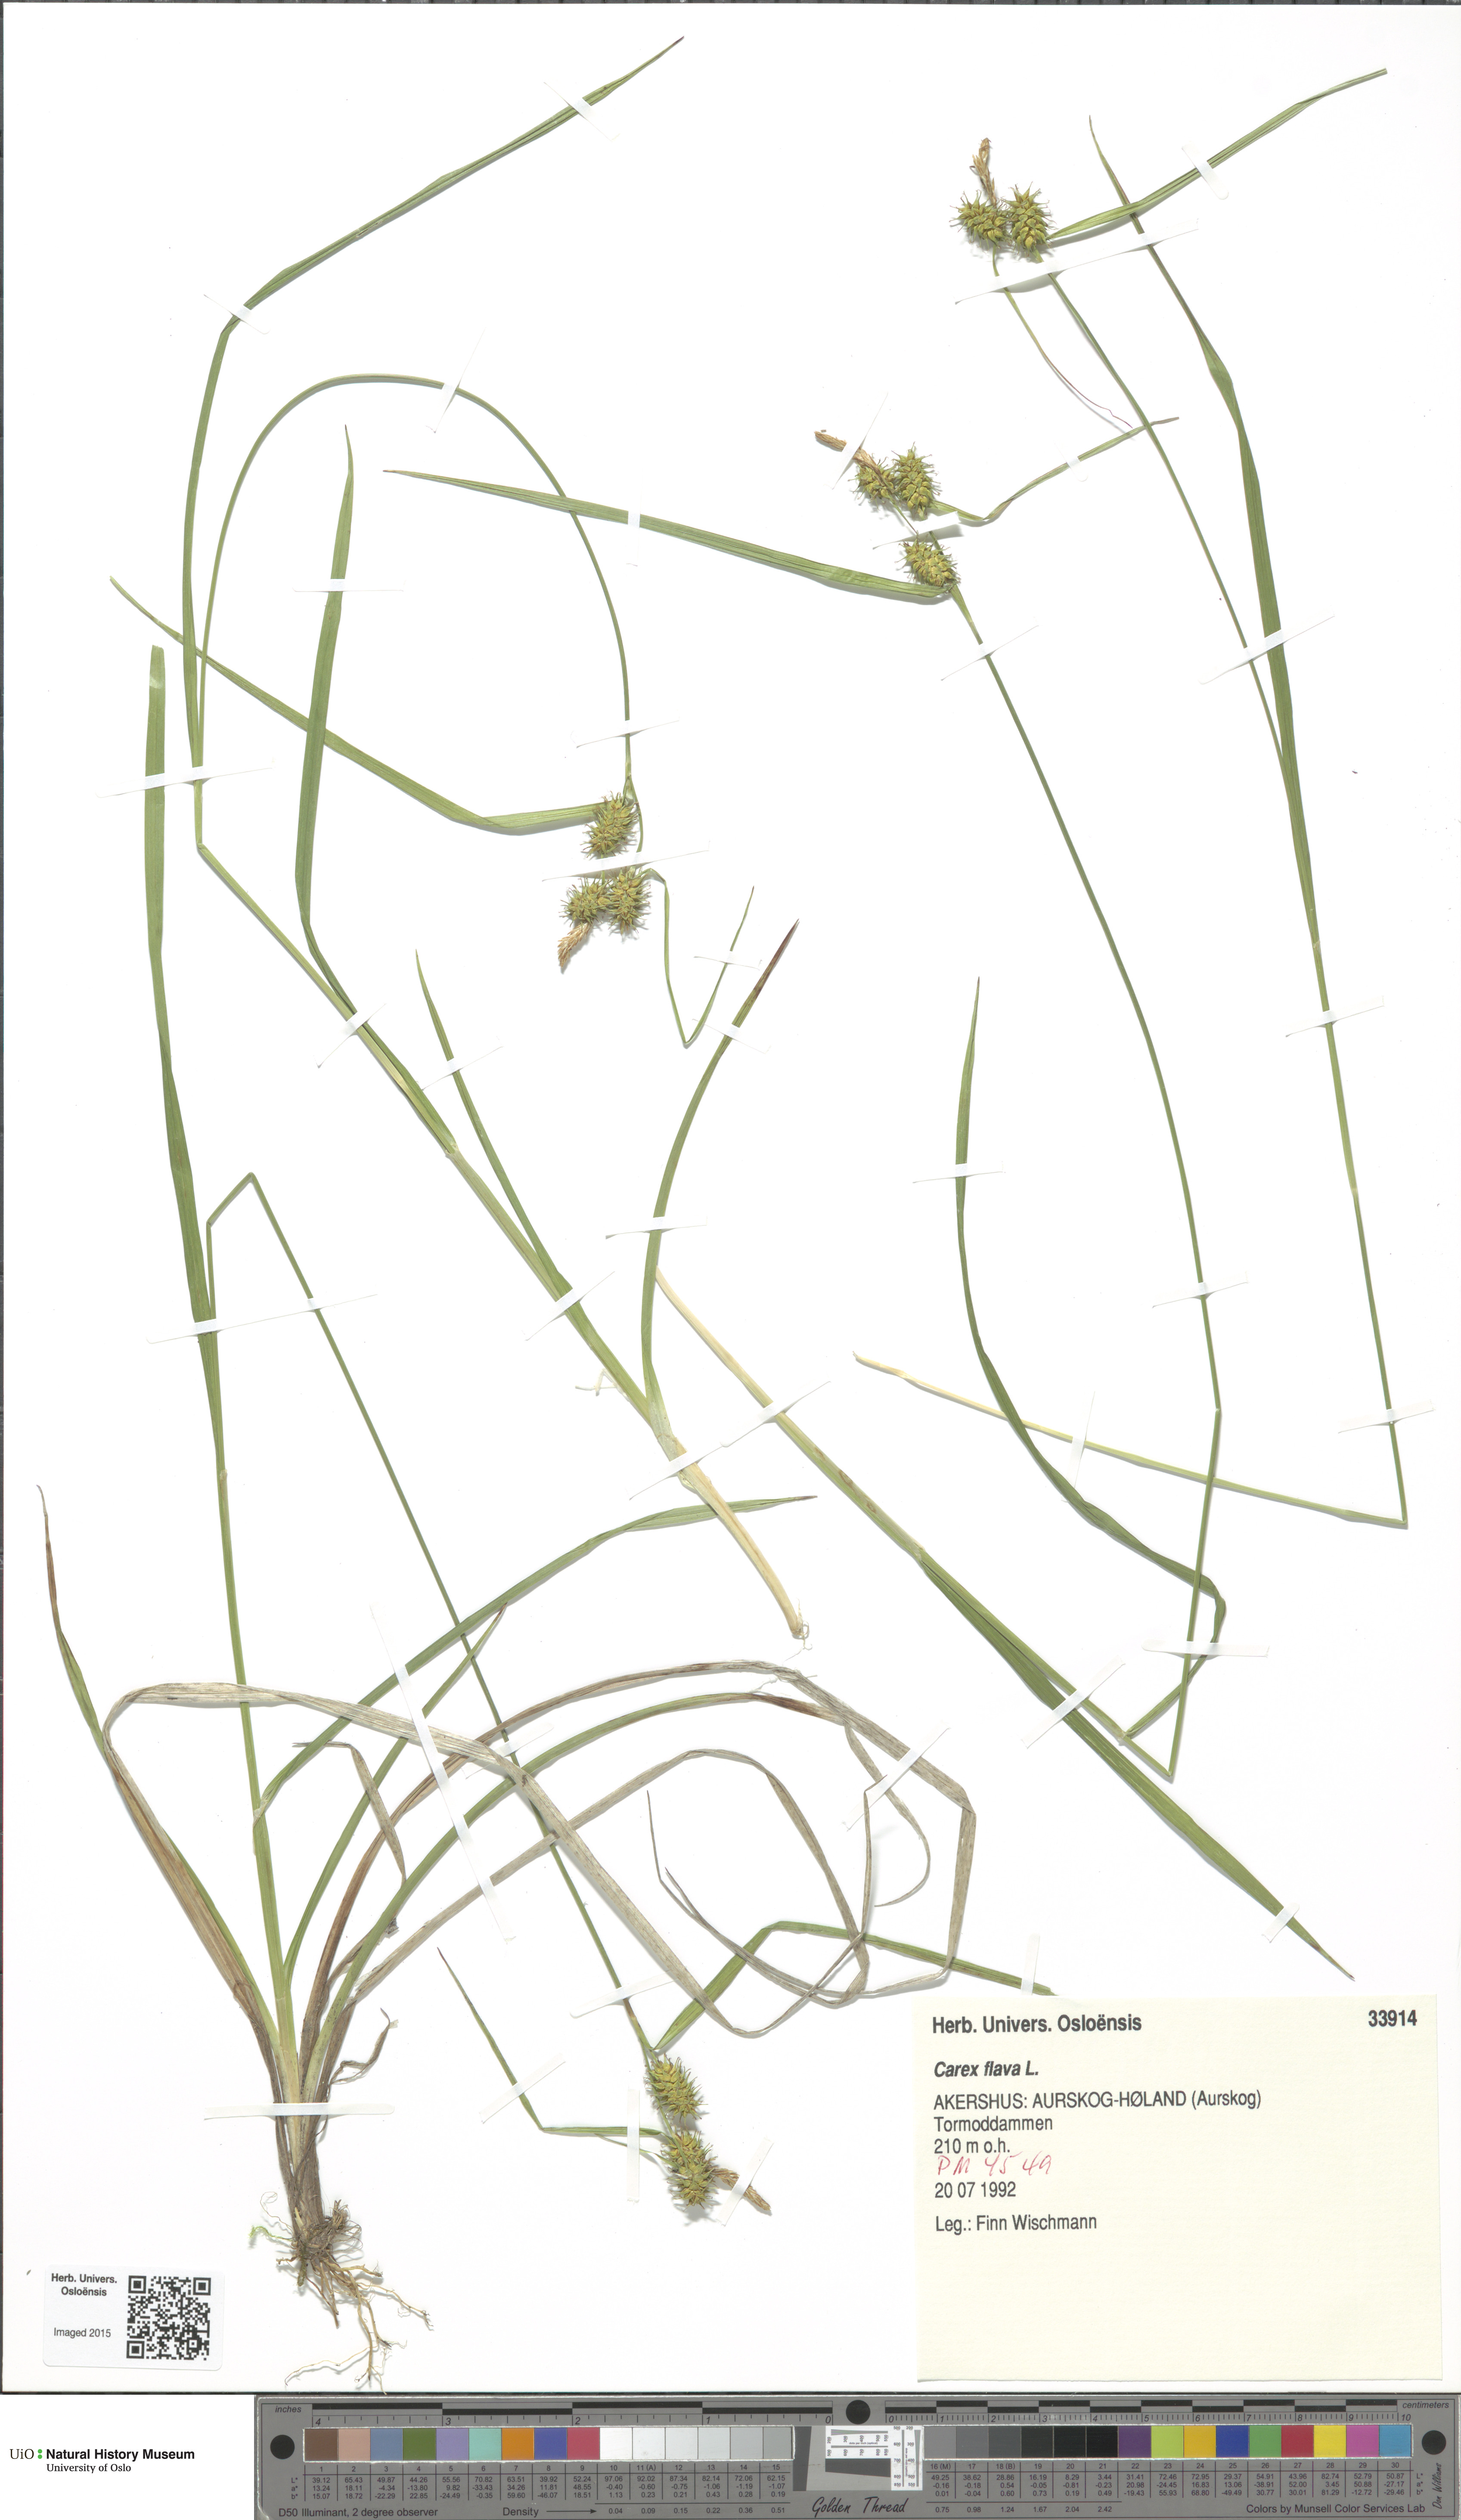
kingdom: Plantae
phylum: Tracheophyta
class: Liliopsida
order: Poales
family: Cyperaceae
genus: Carex
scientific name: Carex flava
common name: Large yellow-sedge
